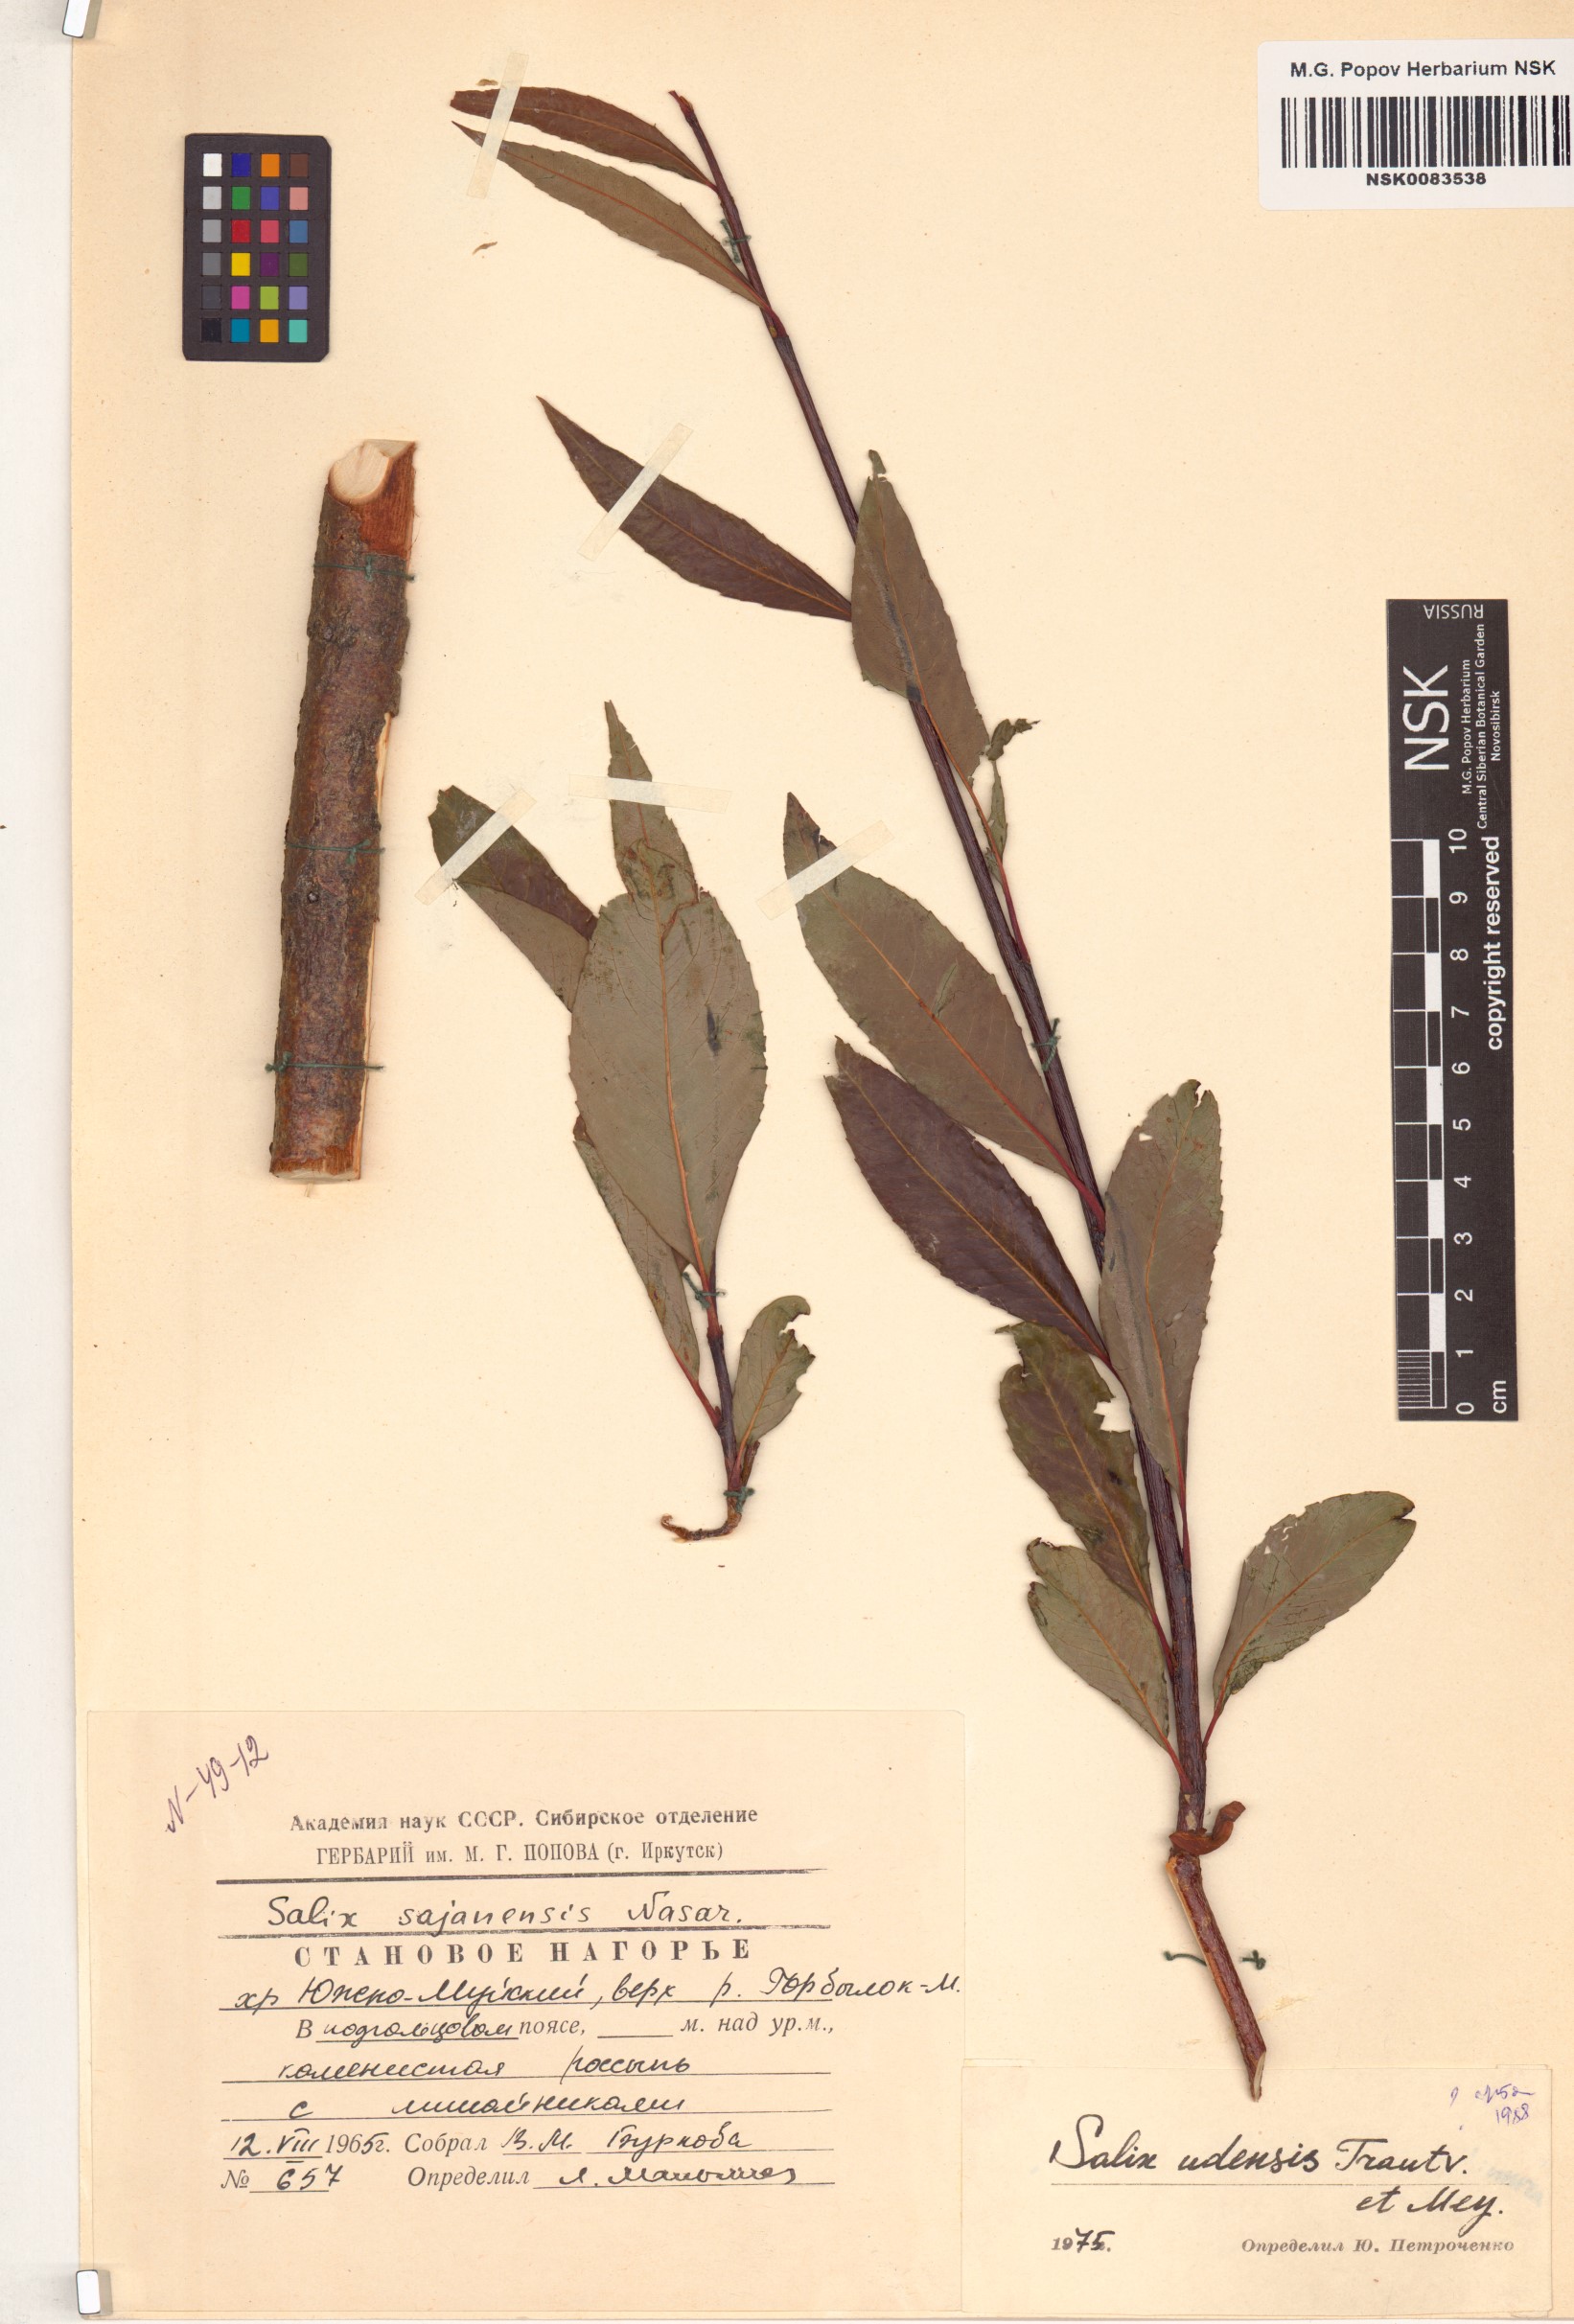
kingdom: Plantae
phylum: Tracheophyta
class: Magnoliopsida
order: Malpighiales
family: Salicaceae
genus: Salix
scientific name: Salix udensis
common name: Sachalin willow
